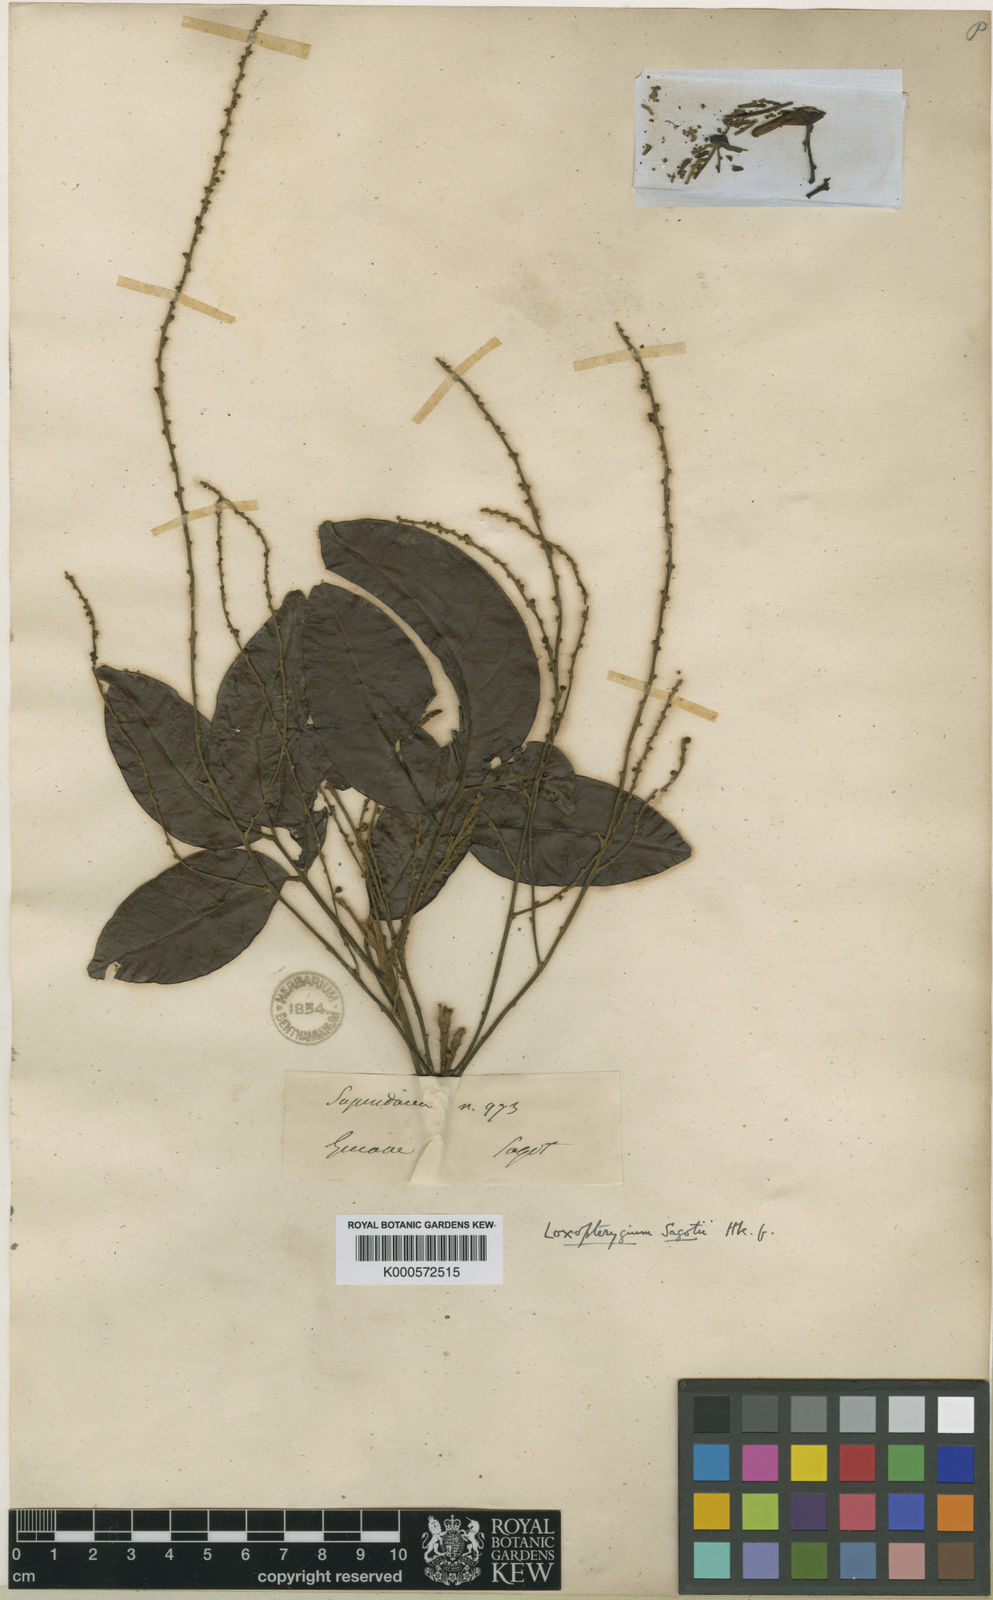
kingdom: Plantae
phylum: Tracheophyta
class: Magnoliopsida
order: Sapindales
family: Anacardiaceae
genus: Loxopterygium
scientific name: Loxopterygium sagotii
